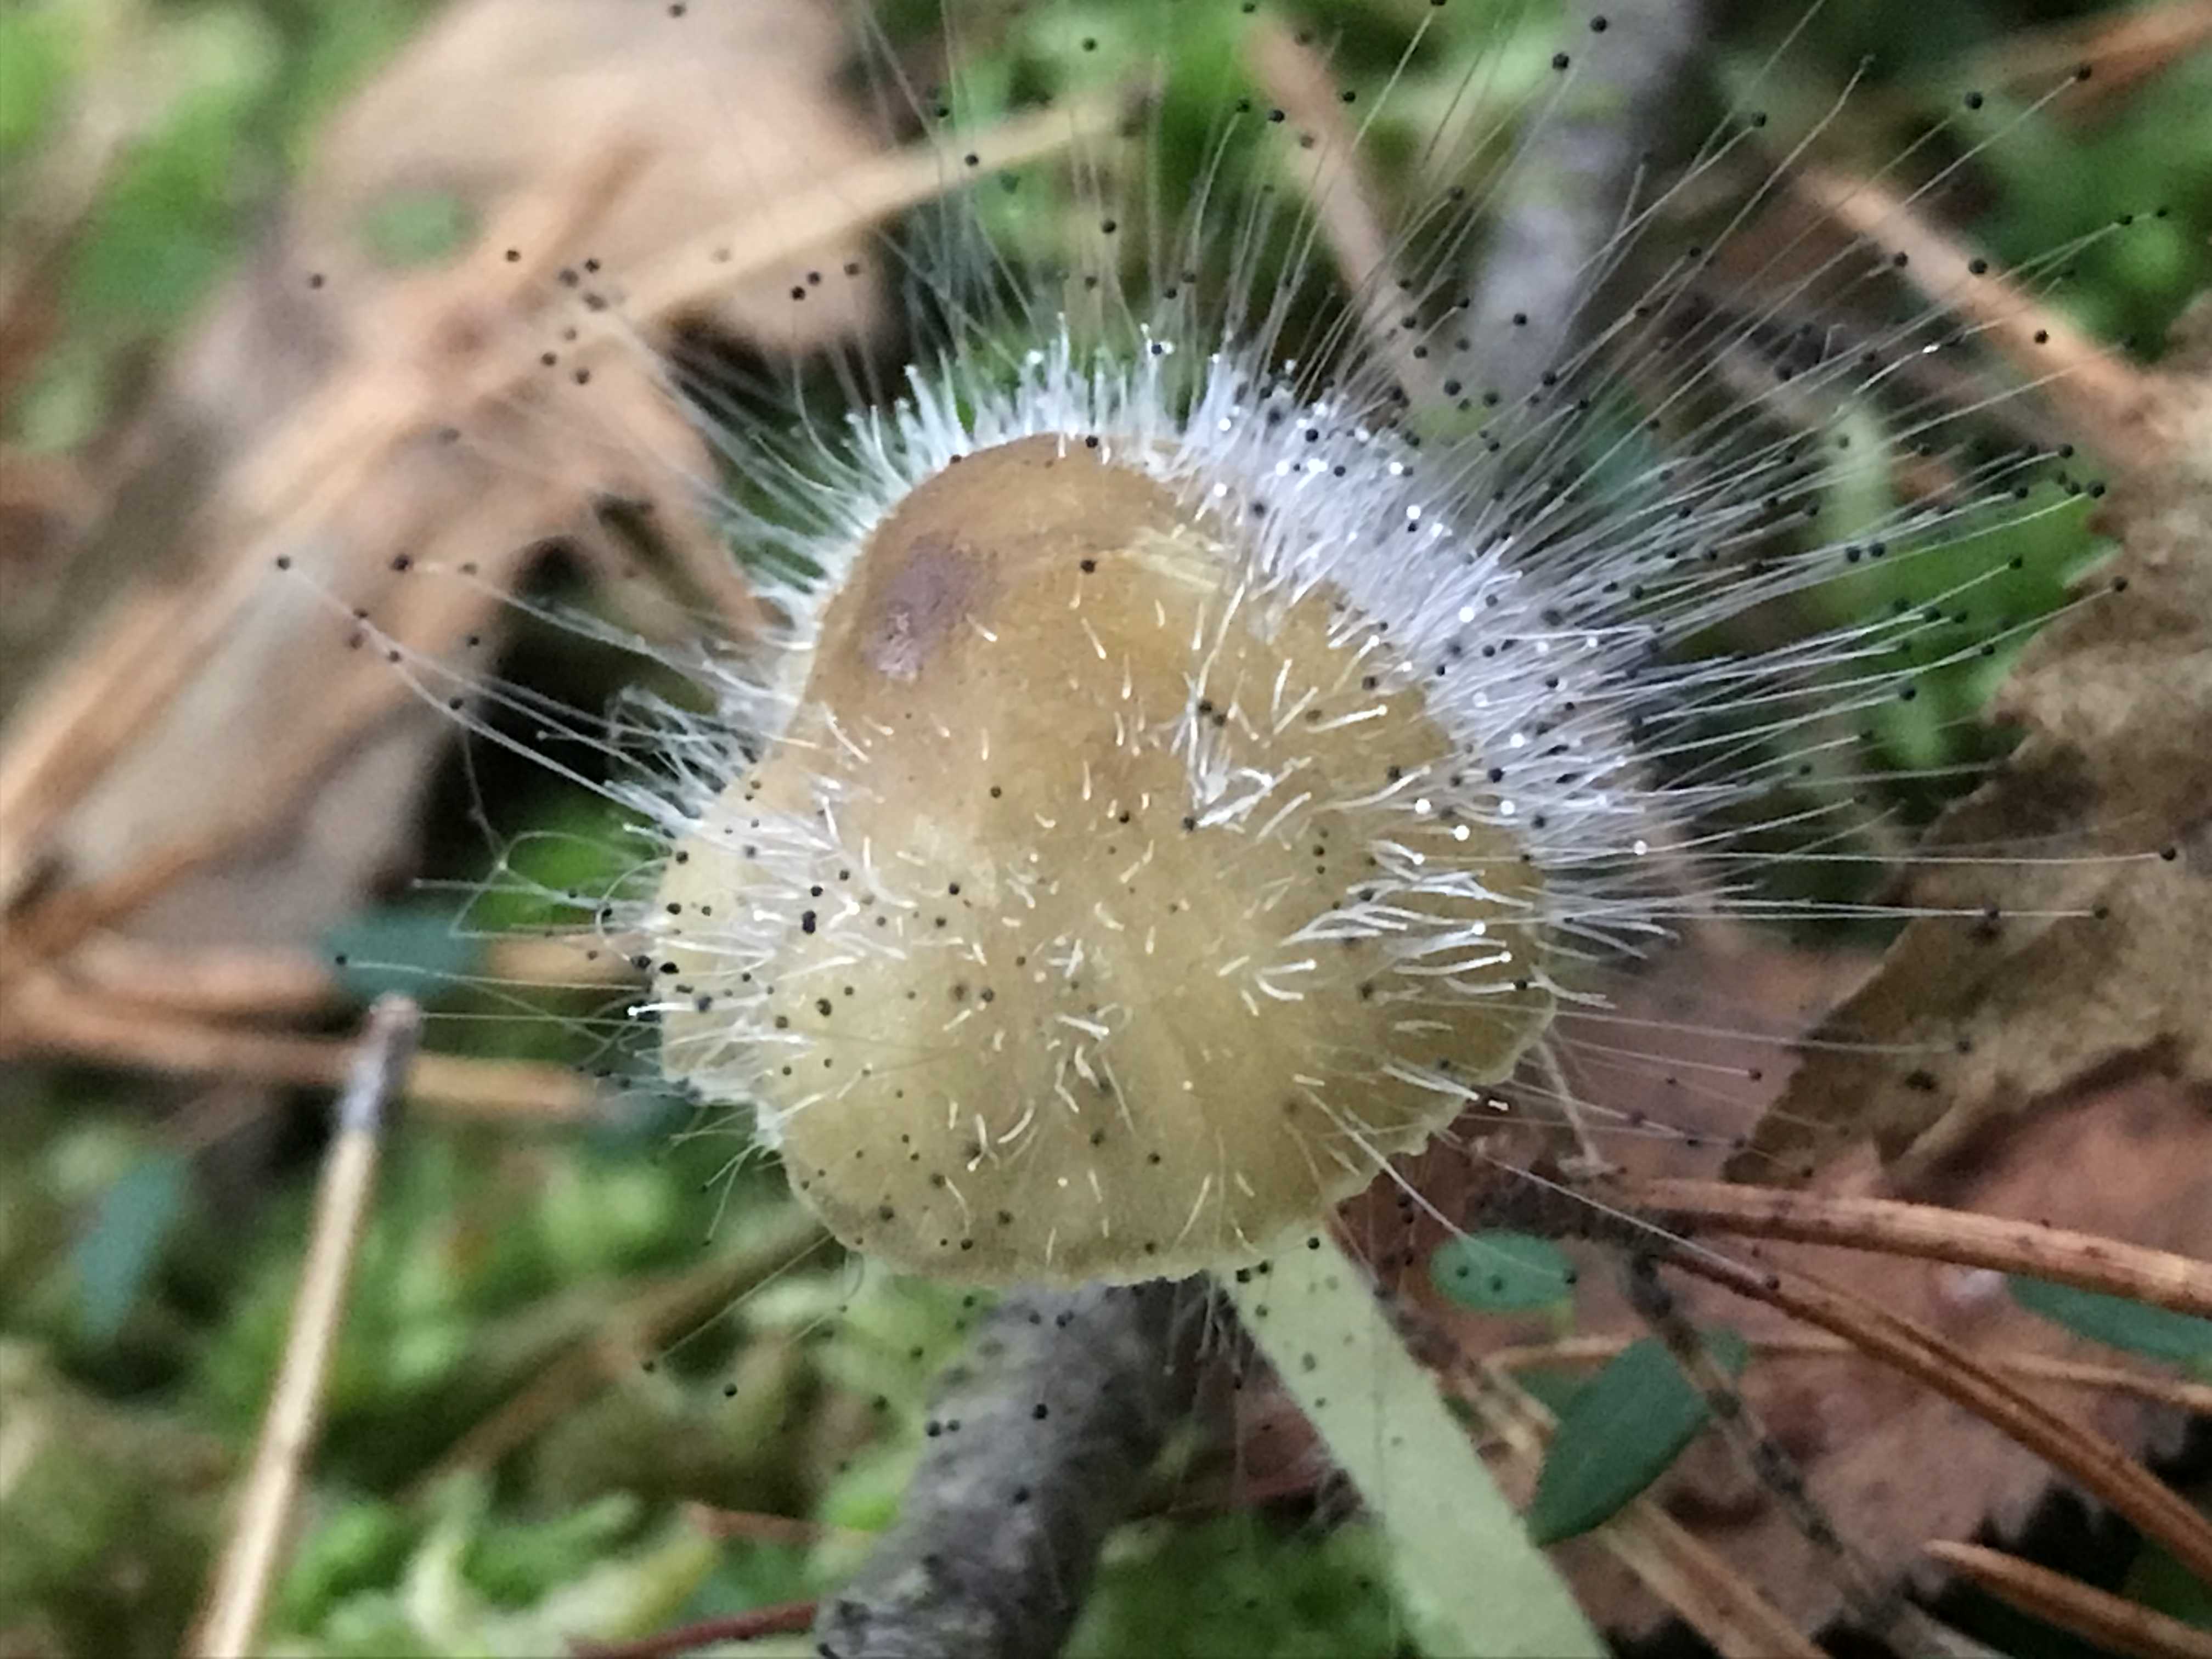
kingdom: Fungi
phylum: Mucoromycota
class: Mucoromycetes
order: Mucorales
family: Phycomycetaceae
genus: Spinellus
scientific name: Spinellus fusiger
